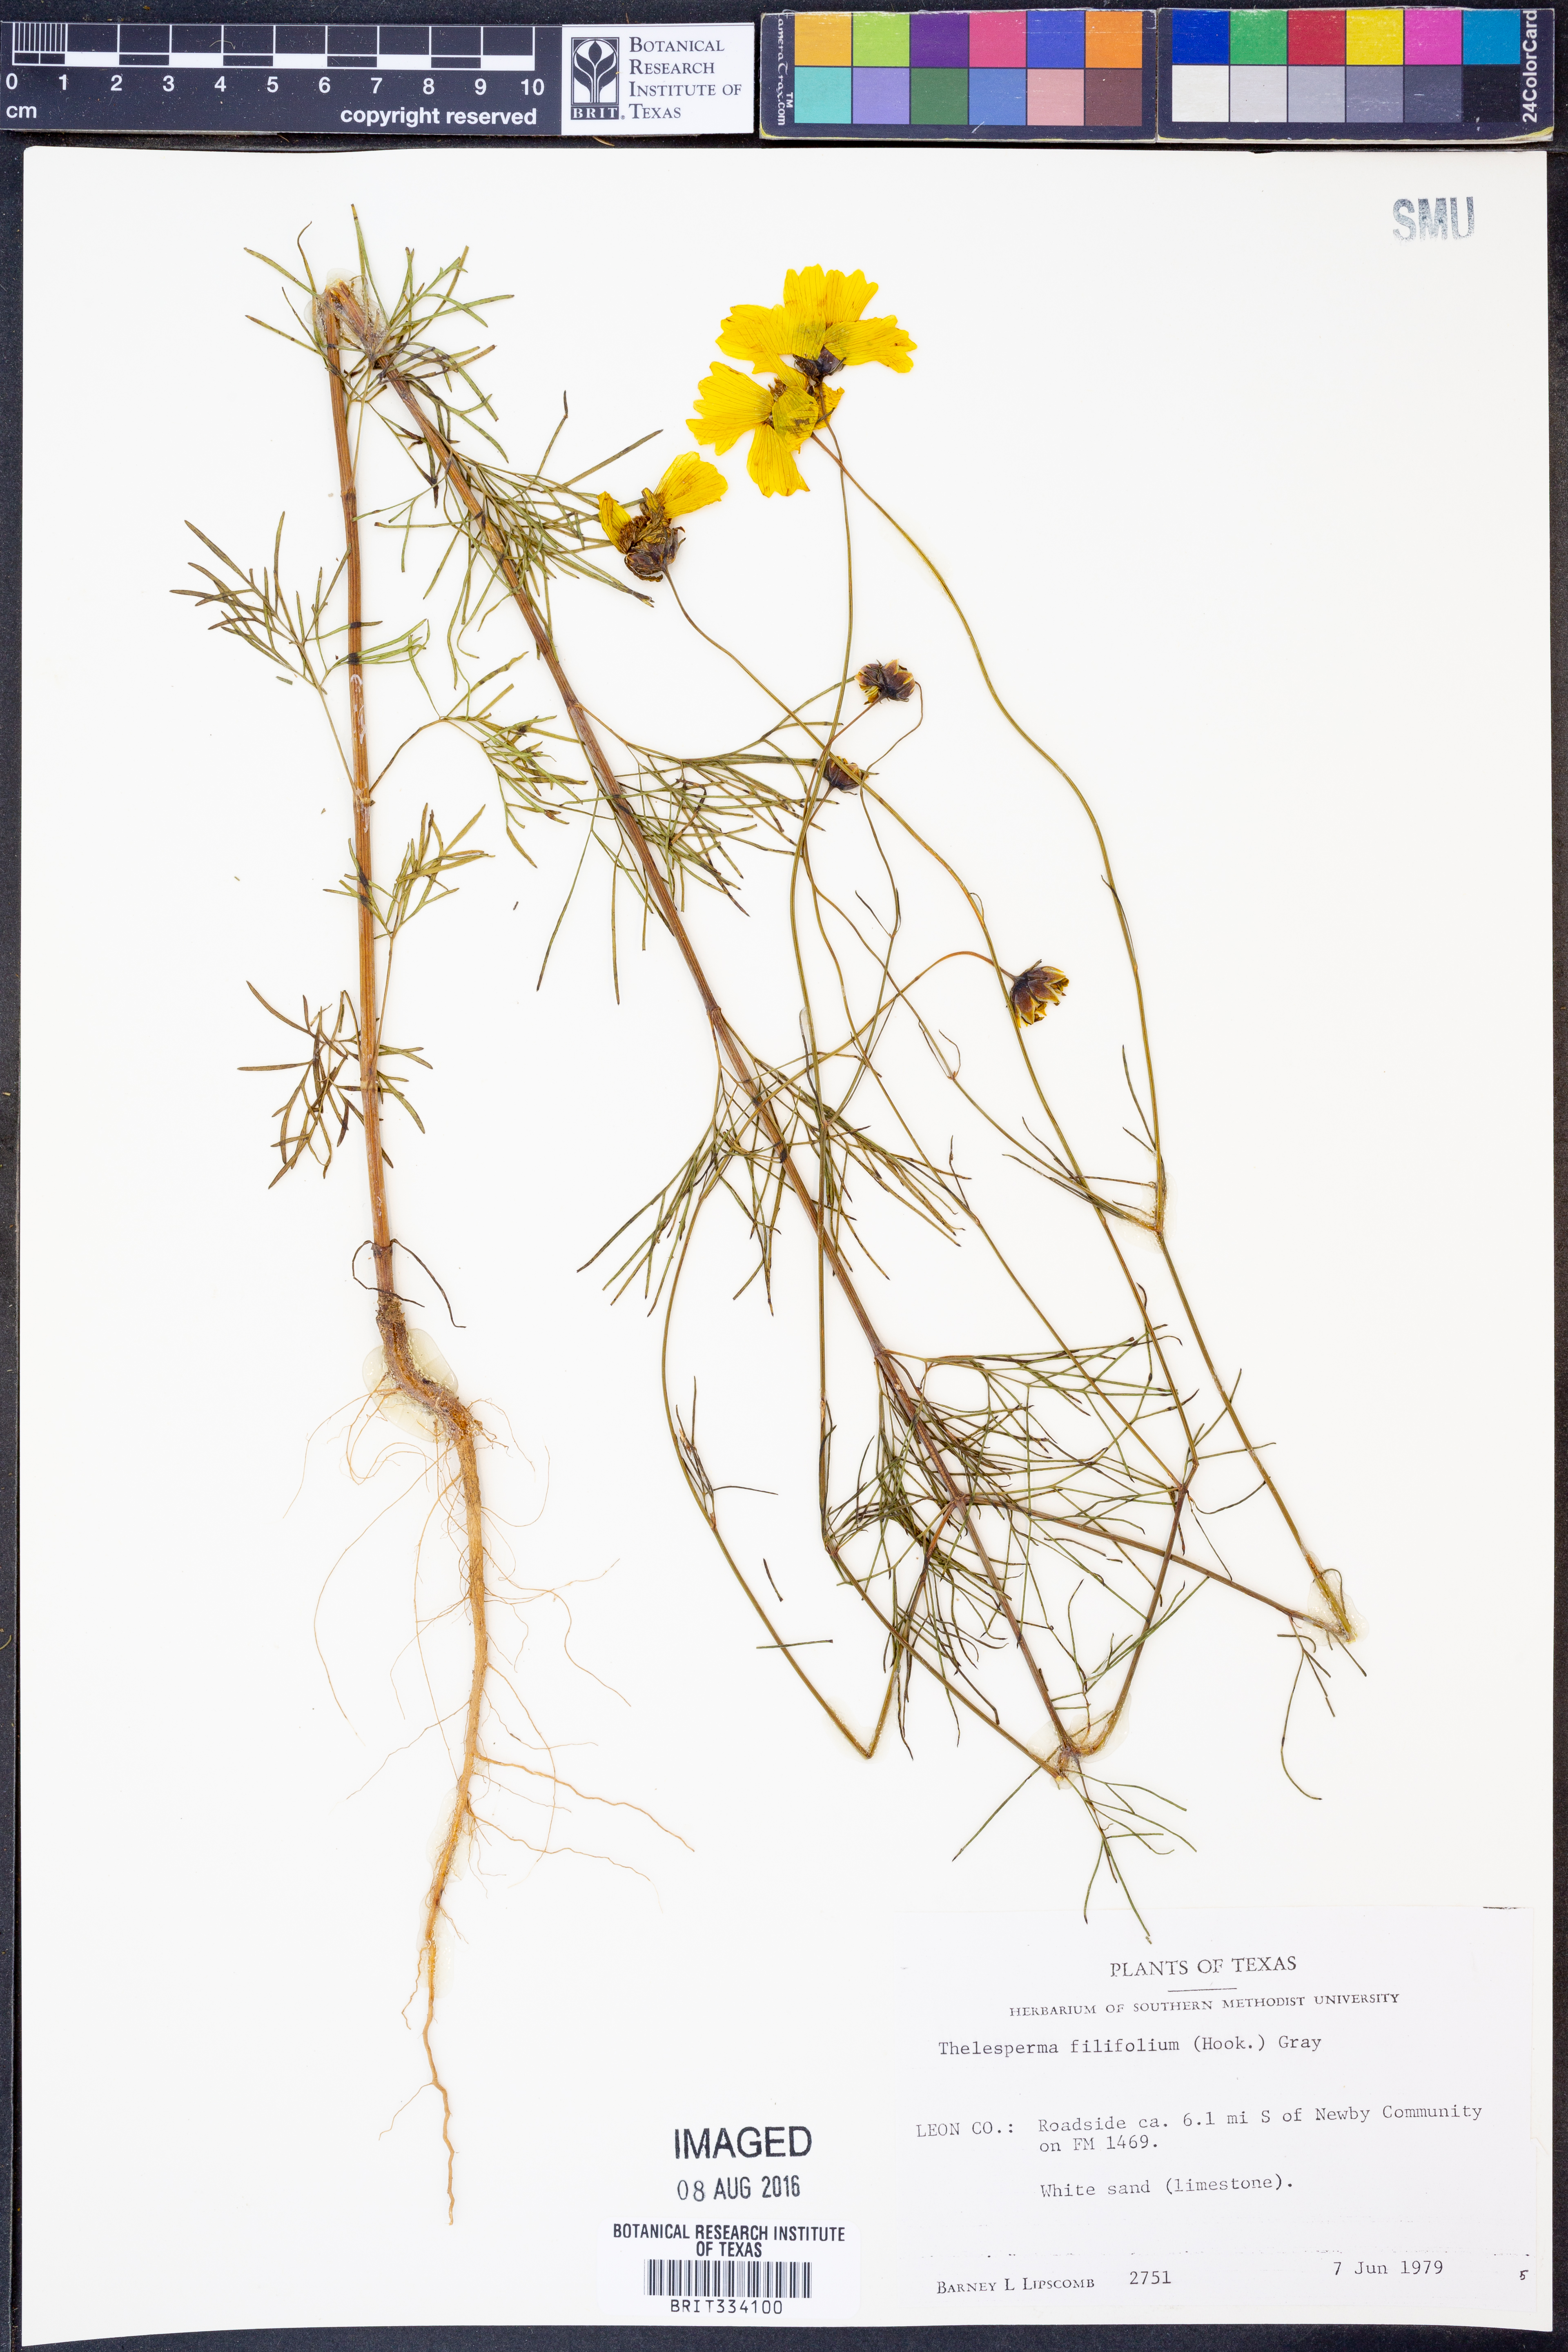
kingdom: Plantae
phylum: Tracheophyta
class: Magnoliopsida
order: Asterales
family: Asteraceae
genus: Thelesperma
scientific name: Thelesperma filifolium
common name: Stiff greenthread
